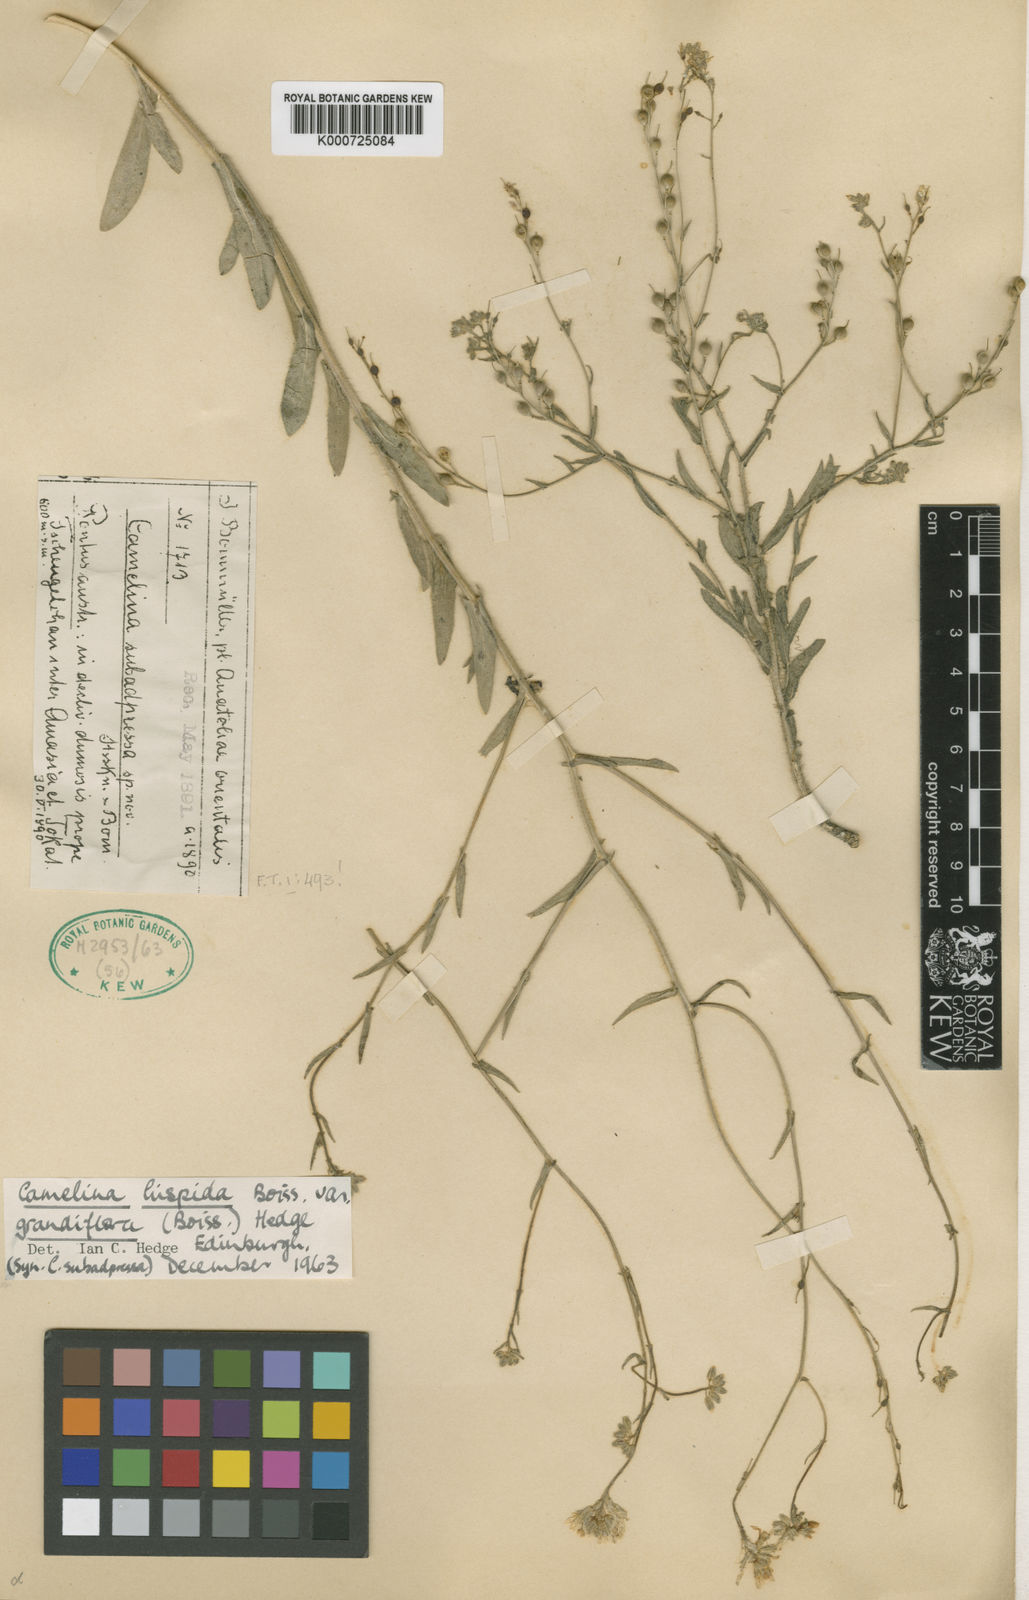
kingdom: Plantae
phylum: Tracheophyta
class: Magnoliopsida
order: Brassicales
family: Brassicaceae
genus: Camelina
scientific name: Camelina hispida
